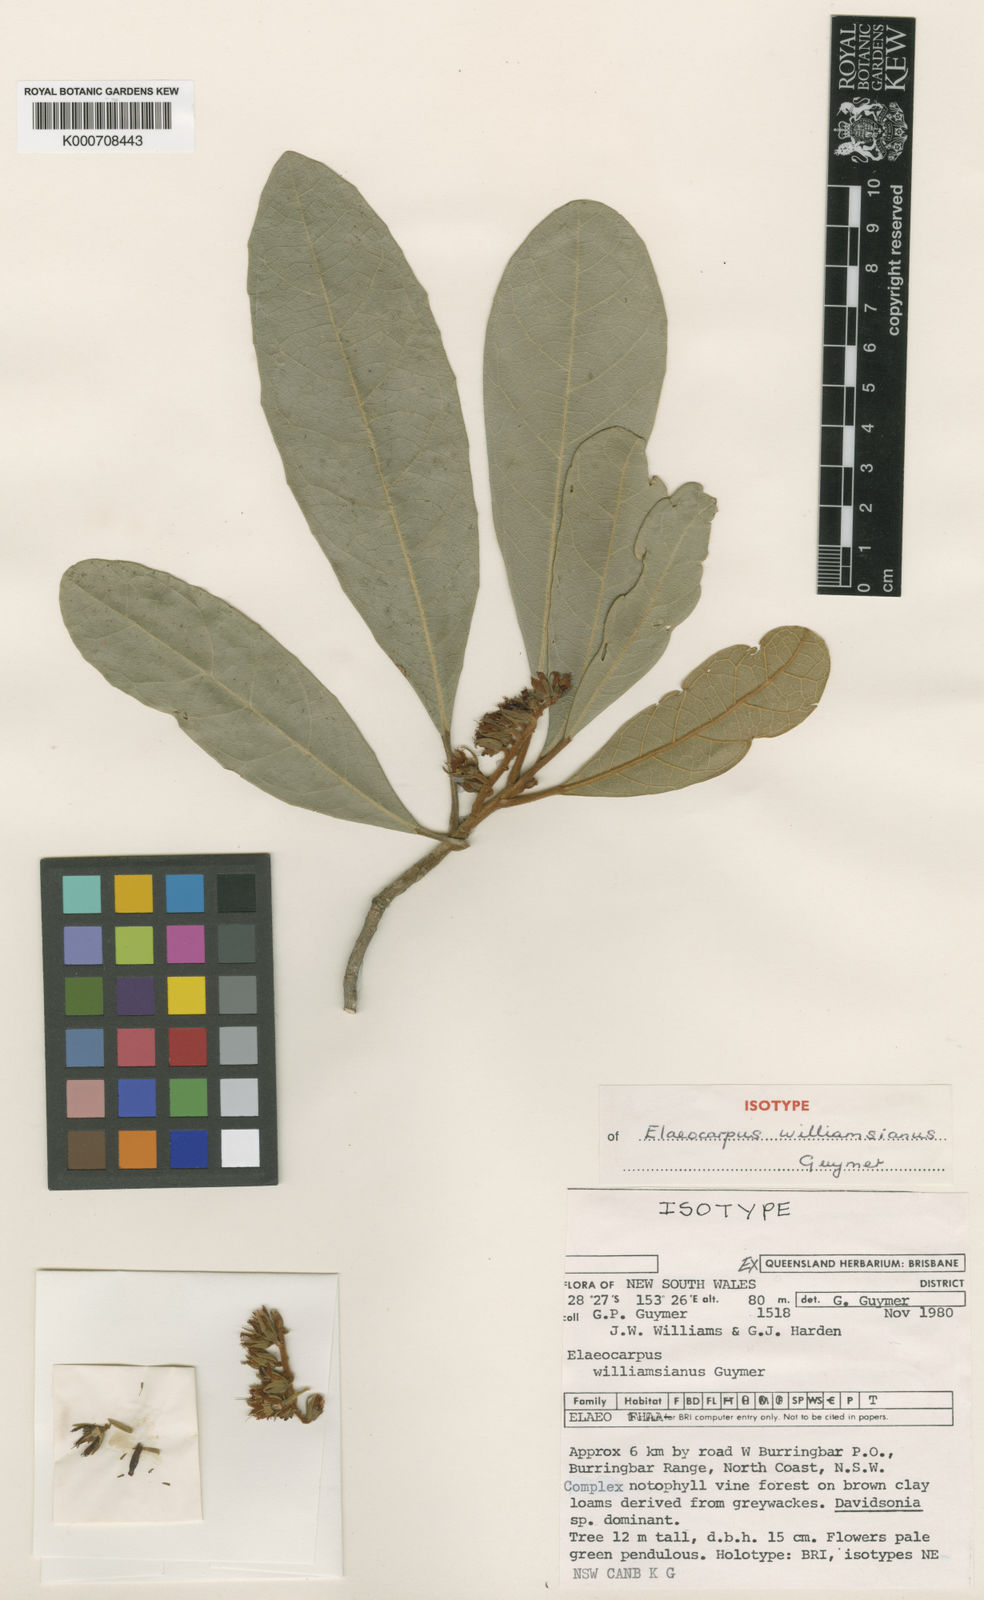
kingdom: Plantae
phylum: Tracheophyta
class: Magnoliopsida
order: Oxalidales
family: Elaeocarpaceae
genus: Elaeocarpus
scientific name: Elaeocarpus williamsianus
